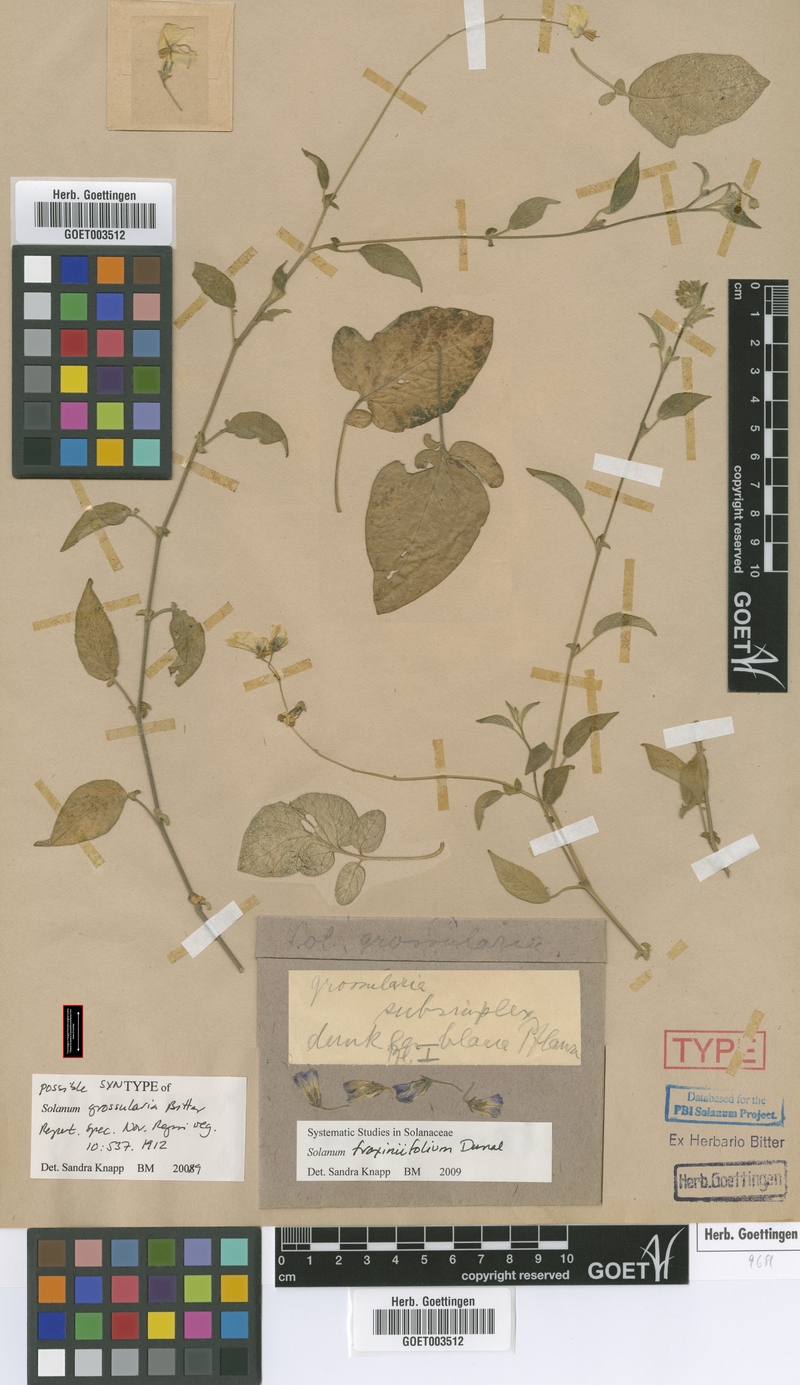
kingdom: Plantae
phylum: Tracheophyta
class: Magnoliopsida
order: Solanales
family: Solanaceae
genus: Solanum
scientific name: Solanum fraxinifolium
